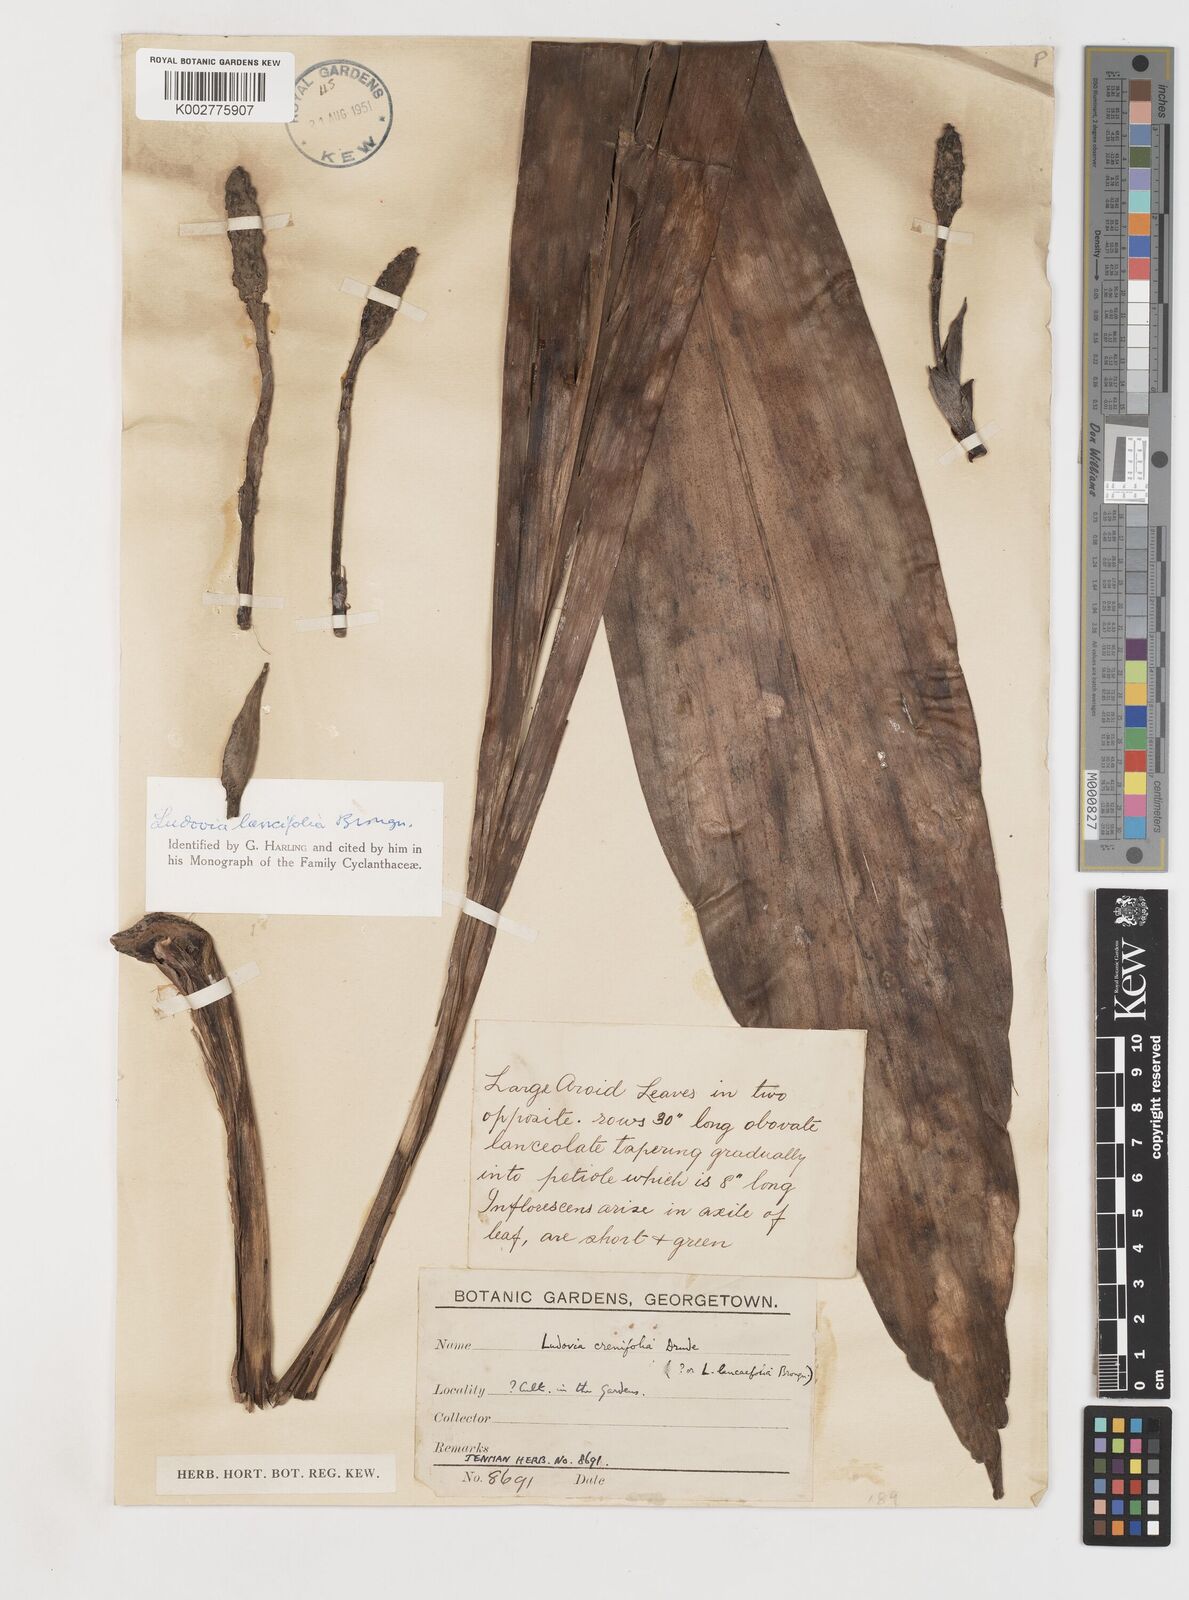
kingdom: Plantae
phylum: Tracheophyta
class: Liliopsida
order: Pandanales
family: Cyclanthaceae
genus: Ludovia
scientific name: Ludovia lancifolia
